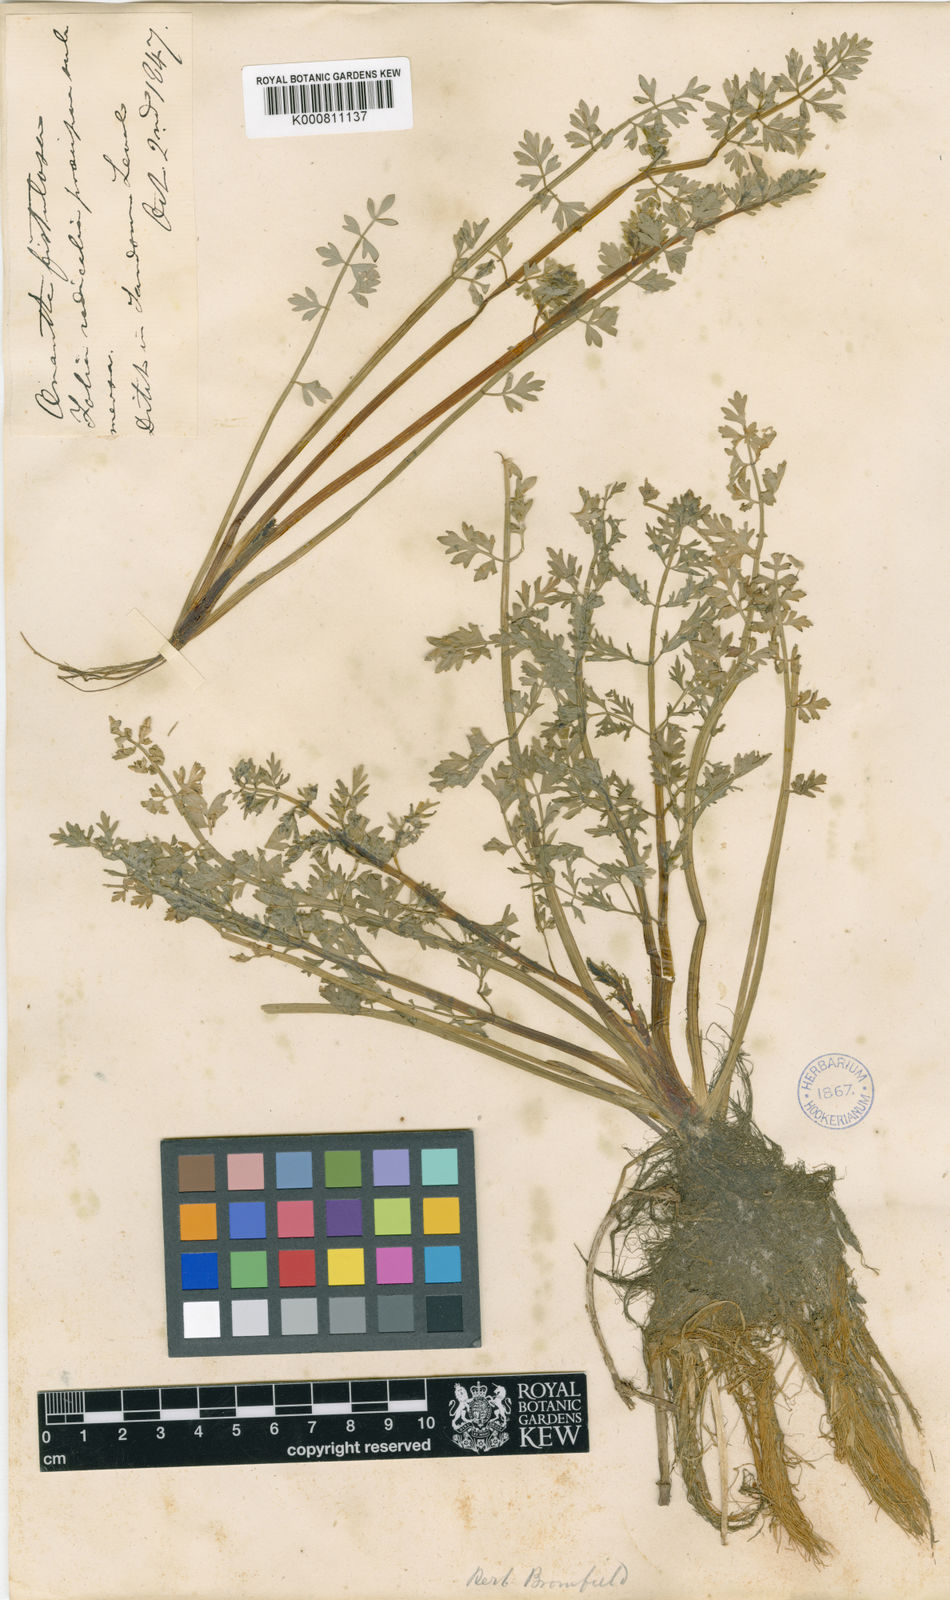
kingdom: Plantae
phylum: Tracheophyta
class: Magnoliopsida
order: Apiales
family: Apiaceae
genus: Oenanthe
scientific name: Oenanthe fistulosa
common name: Tubular water-dropwort
